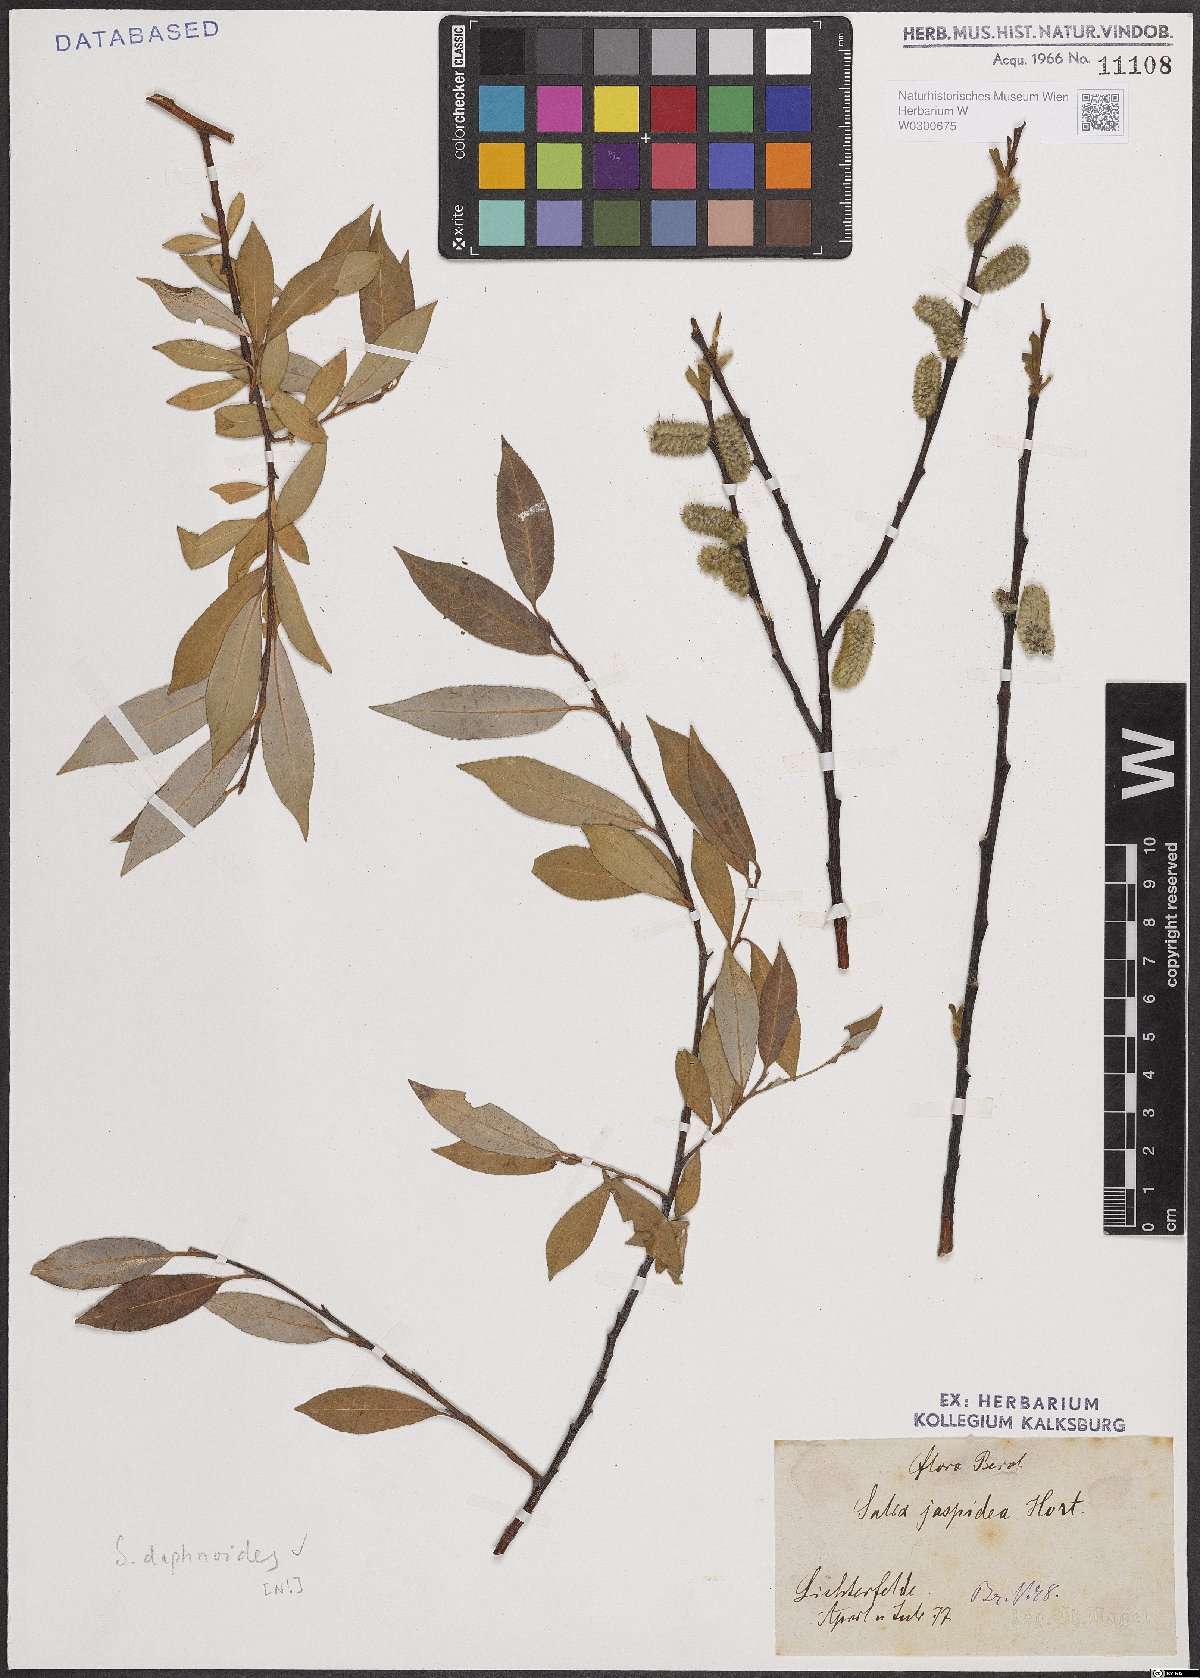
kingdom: Plantae
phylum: Tracheophyta
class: Magnoliopsida
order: Malpighiales
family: Salicaceae
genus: Salix
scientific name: Salix daphnoides
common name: European violet-willow
